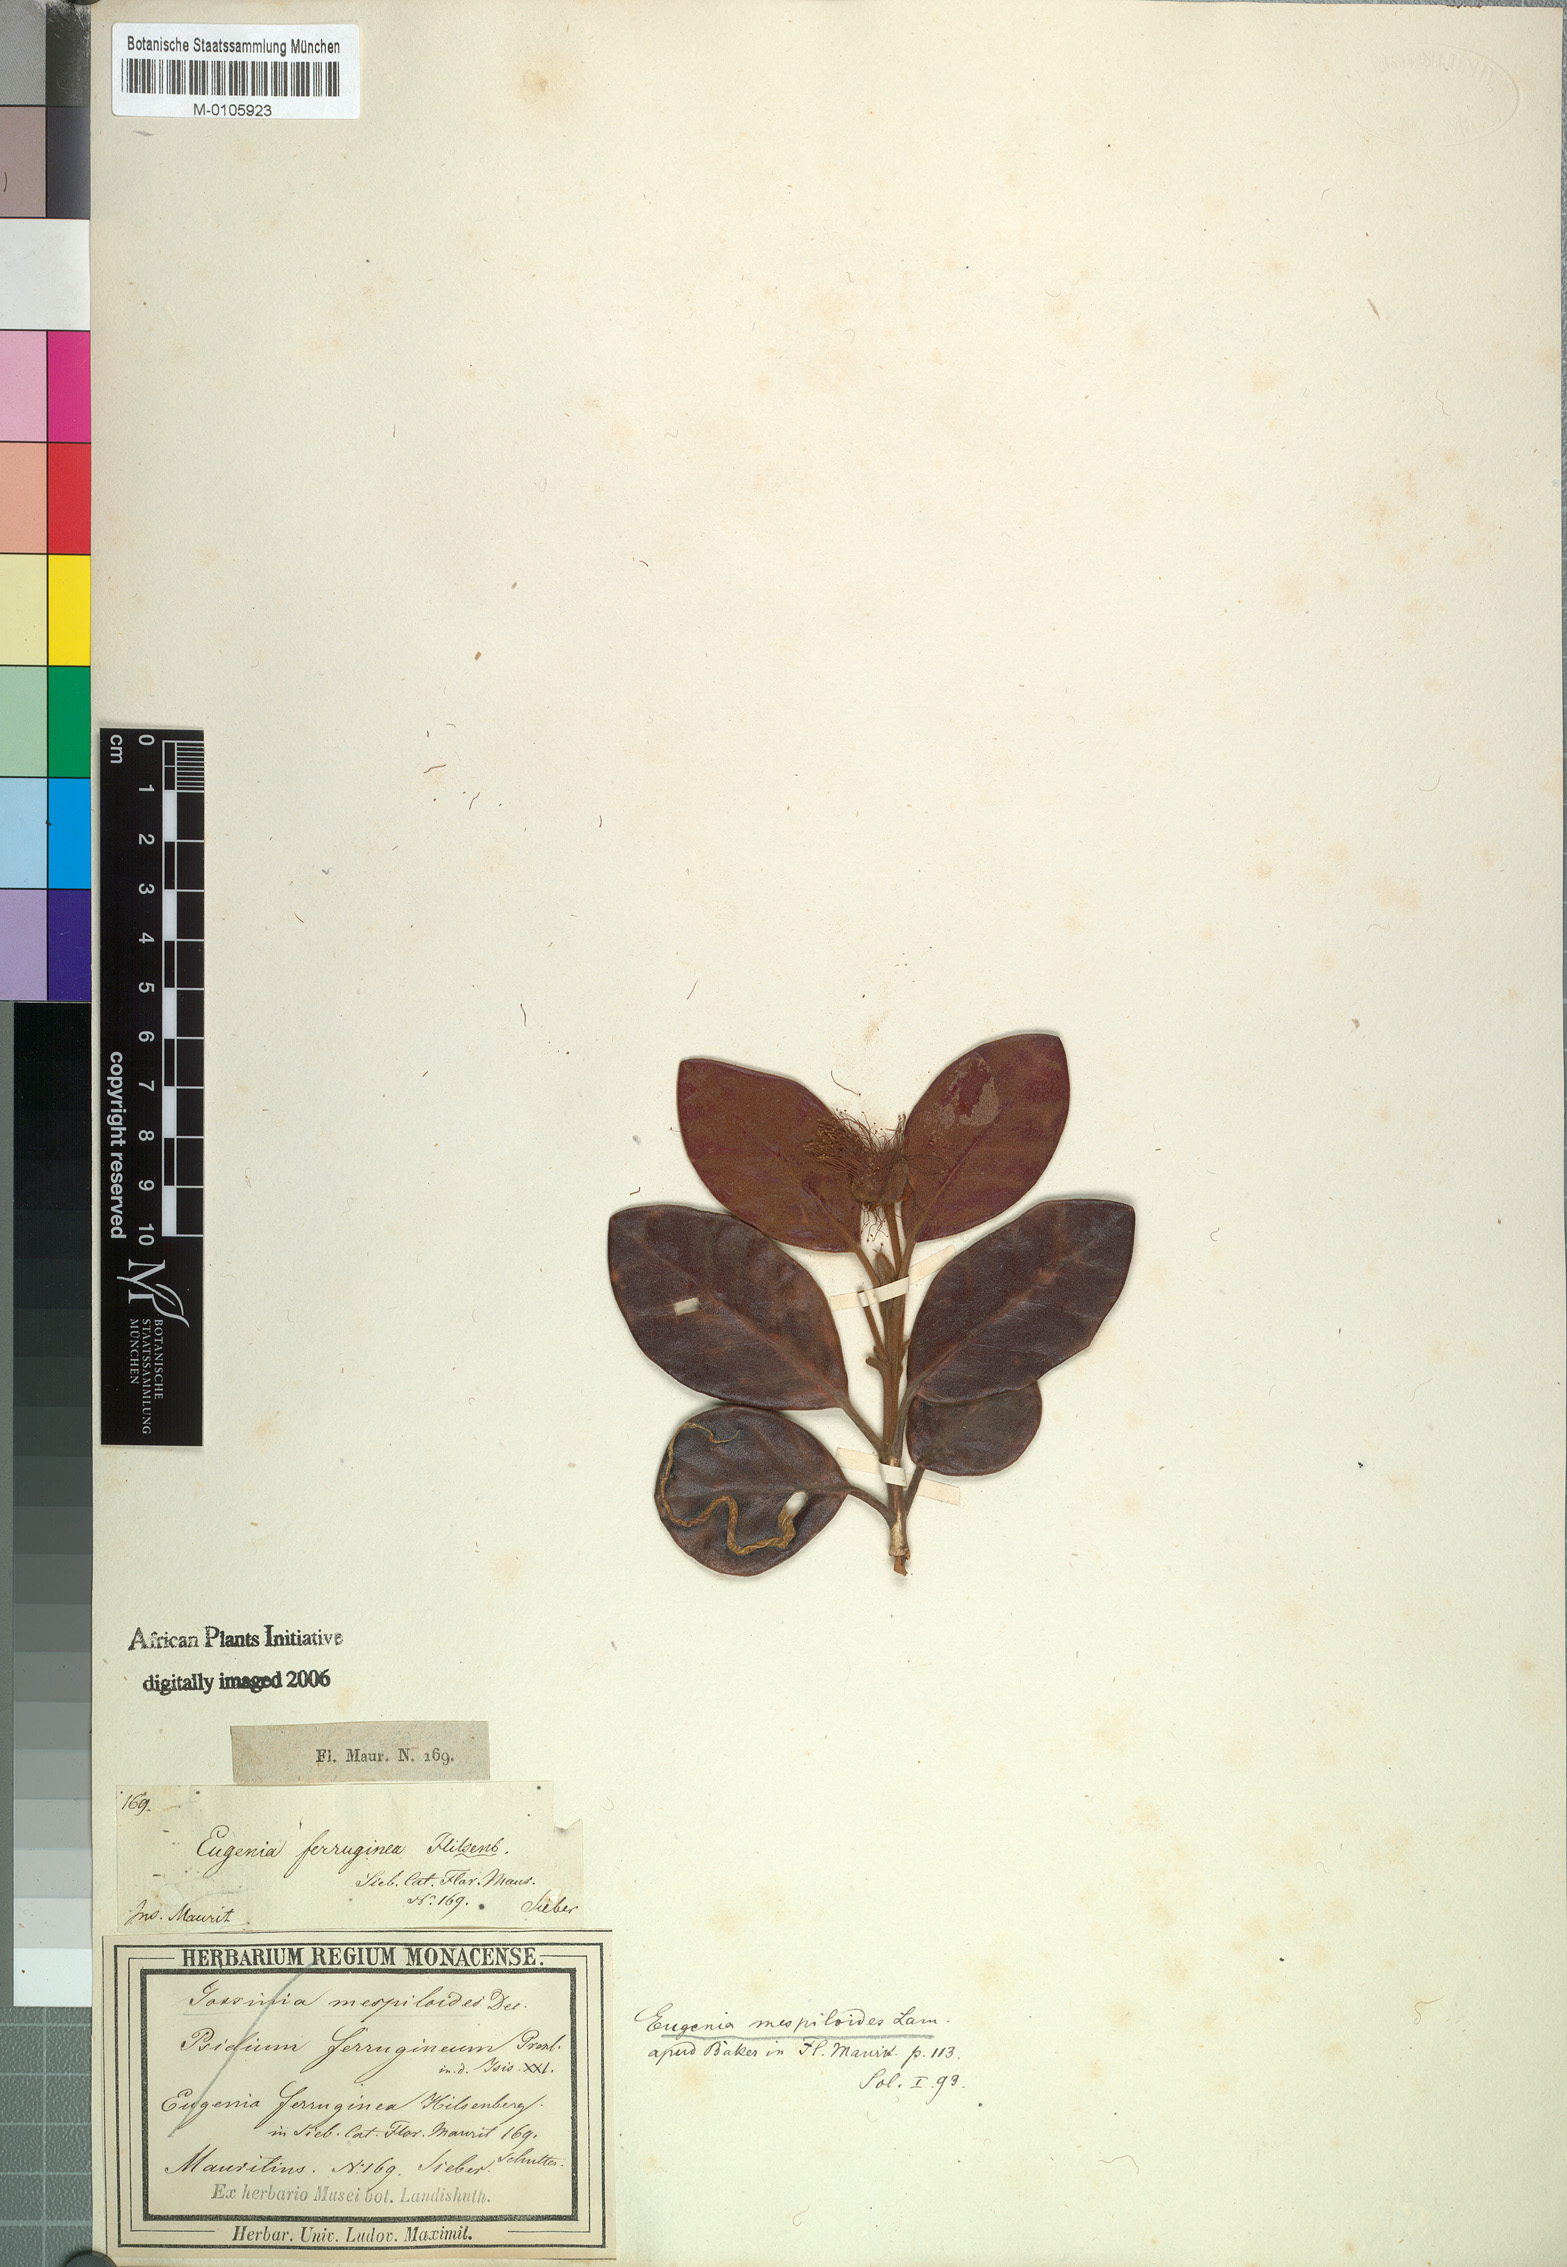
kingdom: Plantae
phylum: Tracheophyta
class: Magnoliopsida
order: Myrtales
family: Myrtaceae
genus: Eugenia
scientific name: Eugenia mespiloides
